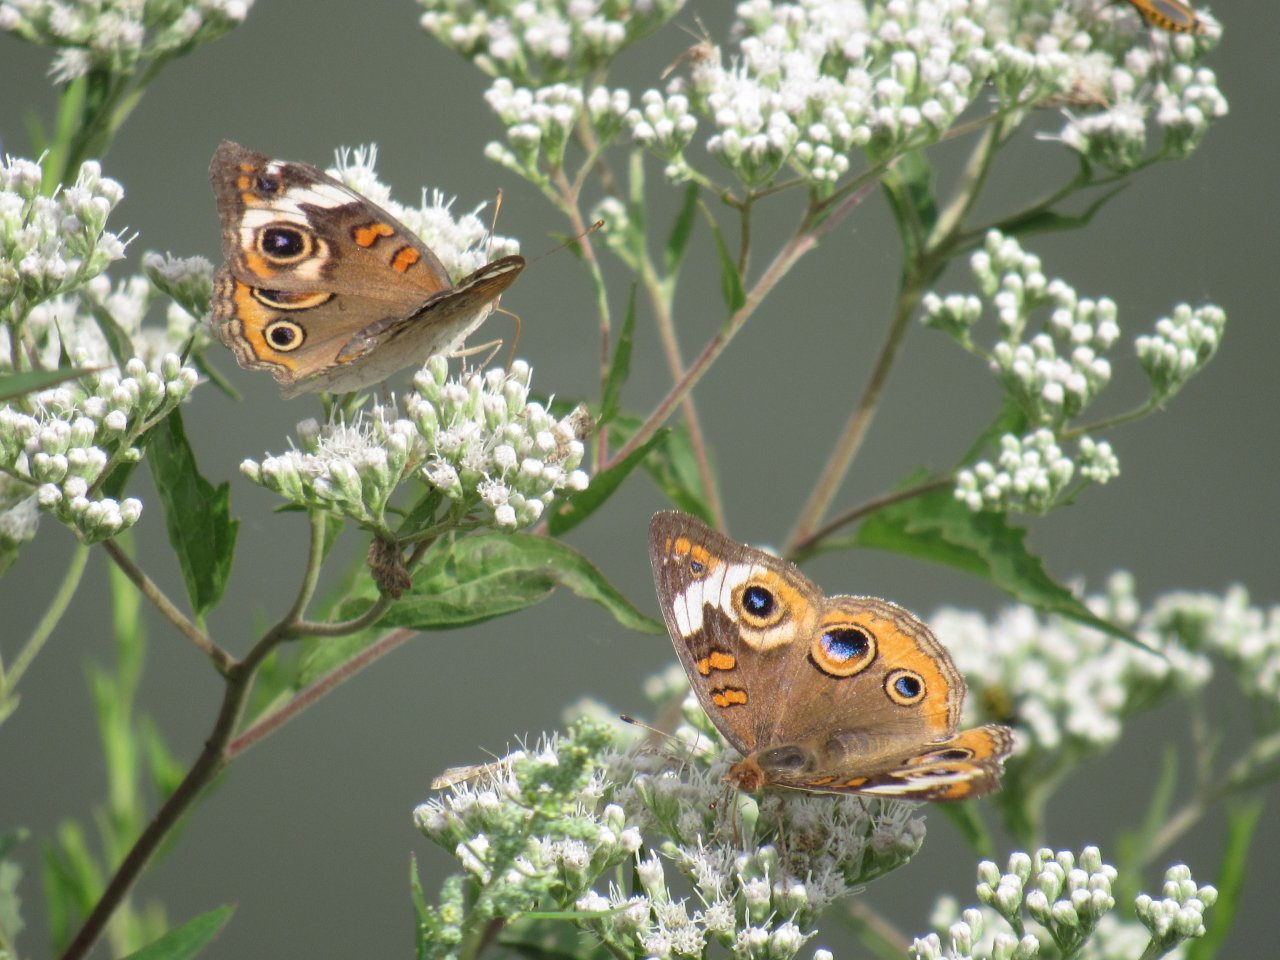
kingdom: Animalia
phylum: Arthropoda
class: Insecta
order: Lepidoptera
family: Nymphalidae
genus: Junonia
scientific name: Junonia coenia
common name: Common Buckeye
